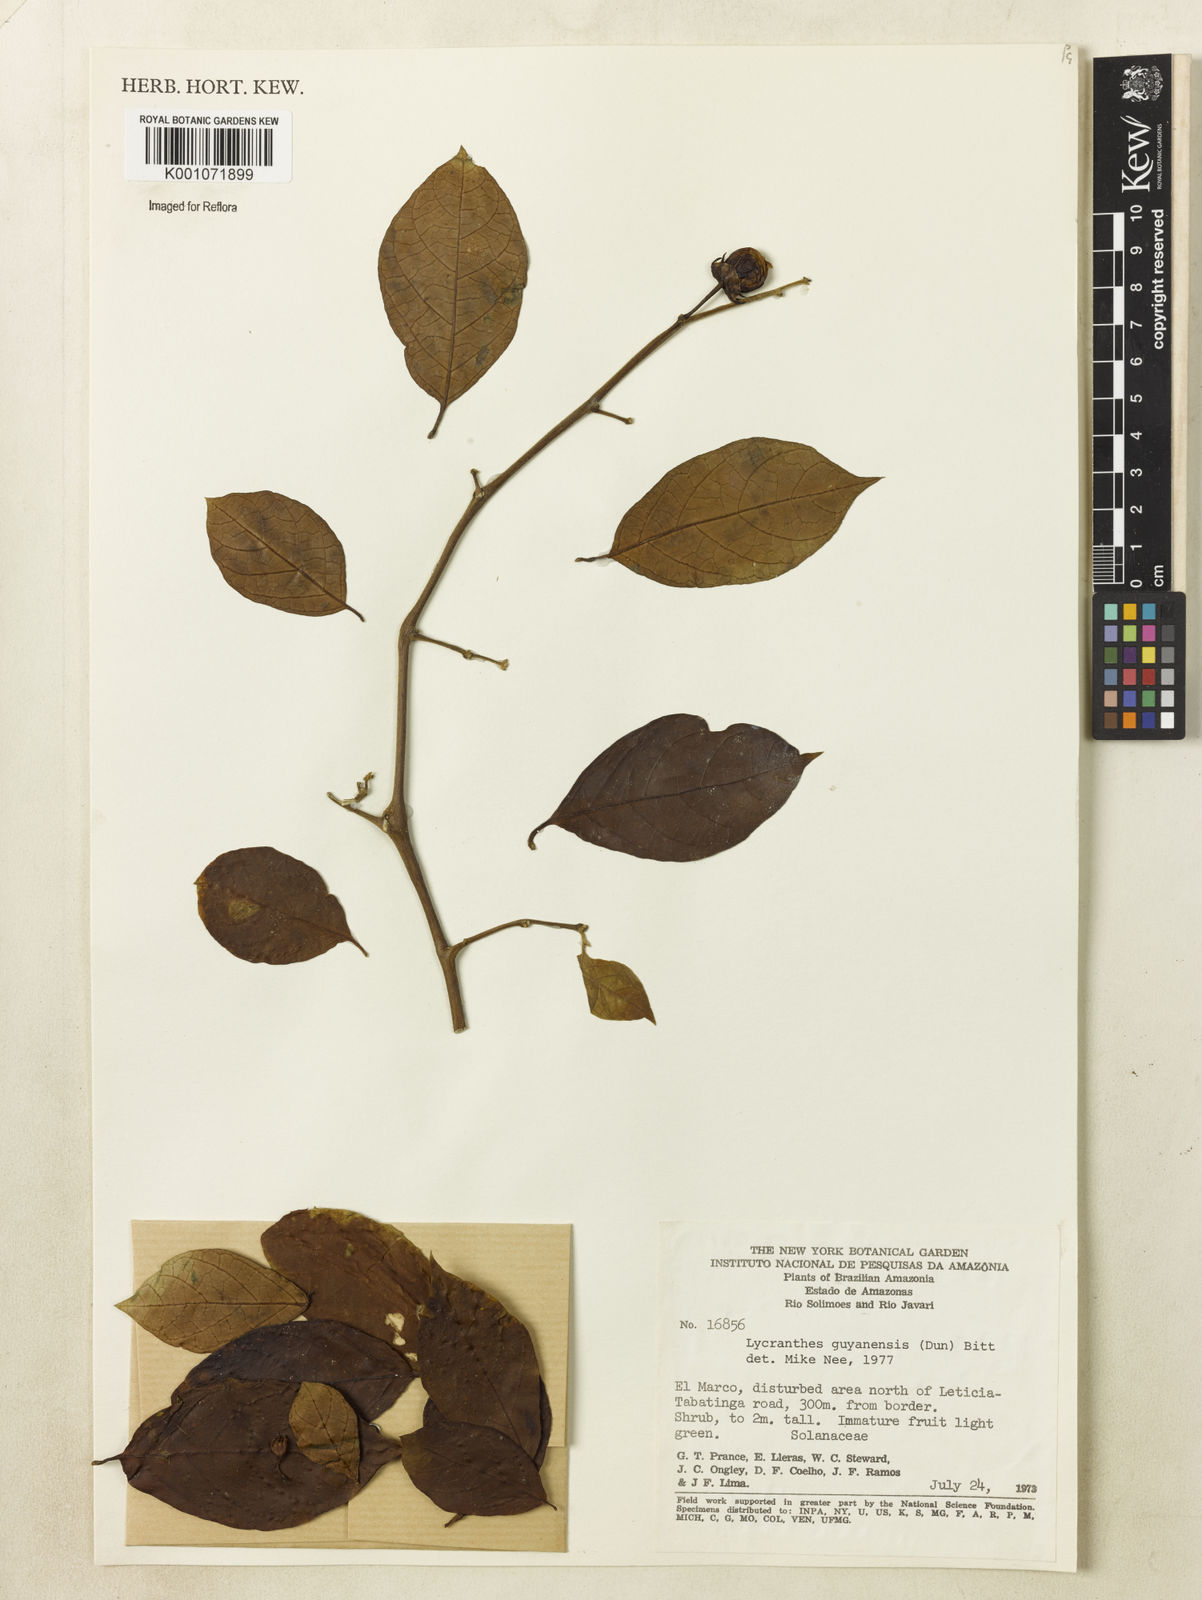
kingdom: Plantae
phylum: Tracheophyta
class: Magnoliopsida
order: Solanales
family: Solanaceae
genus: Lycianthes
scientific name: Lycianthes pauciflora
